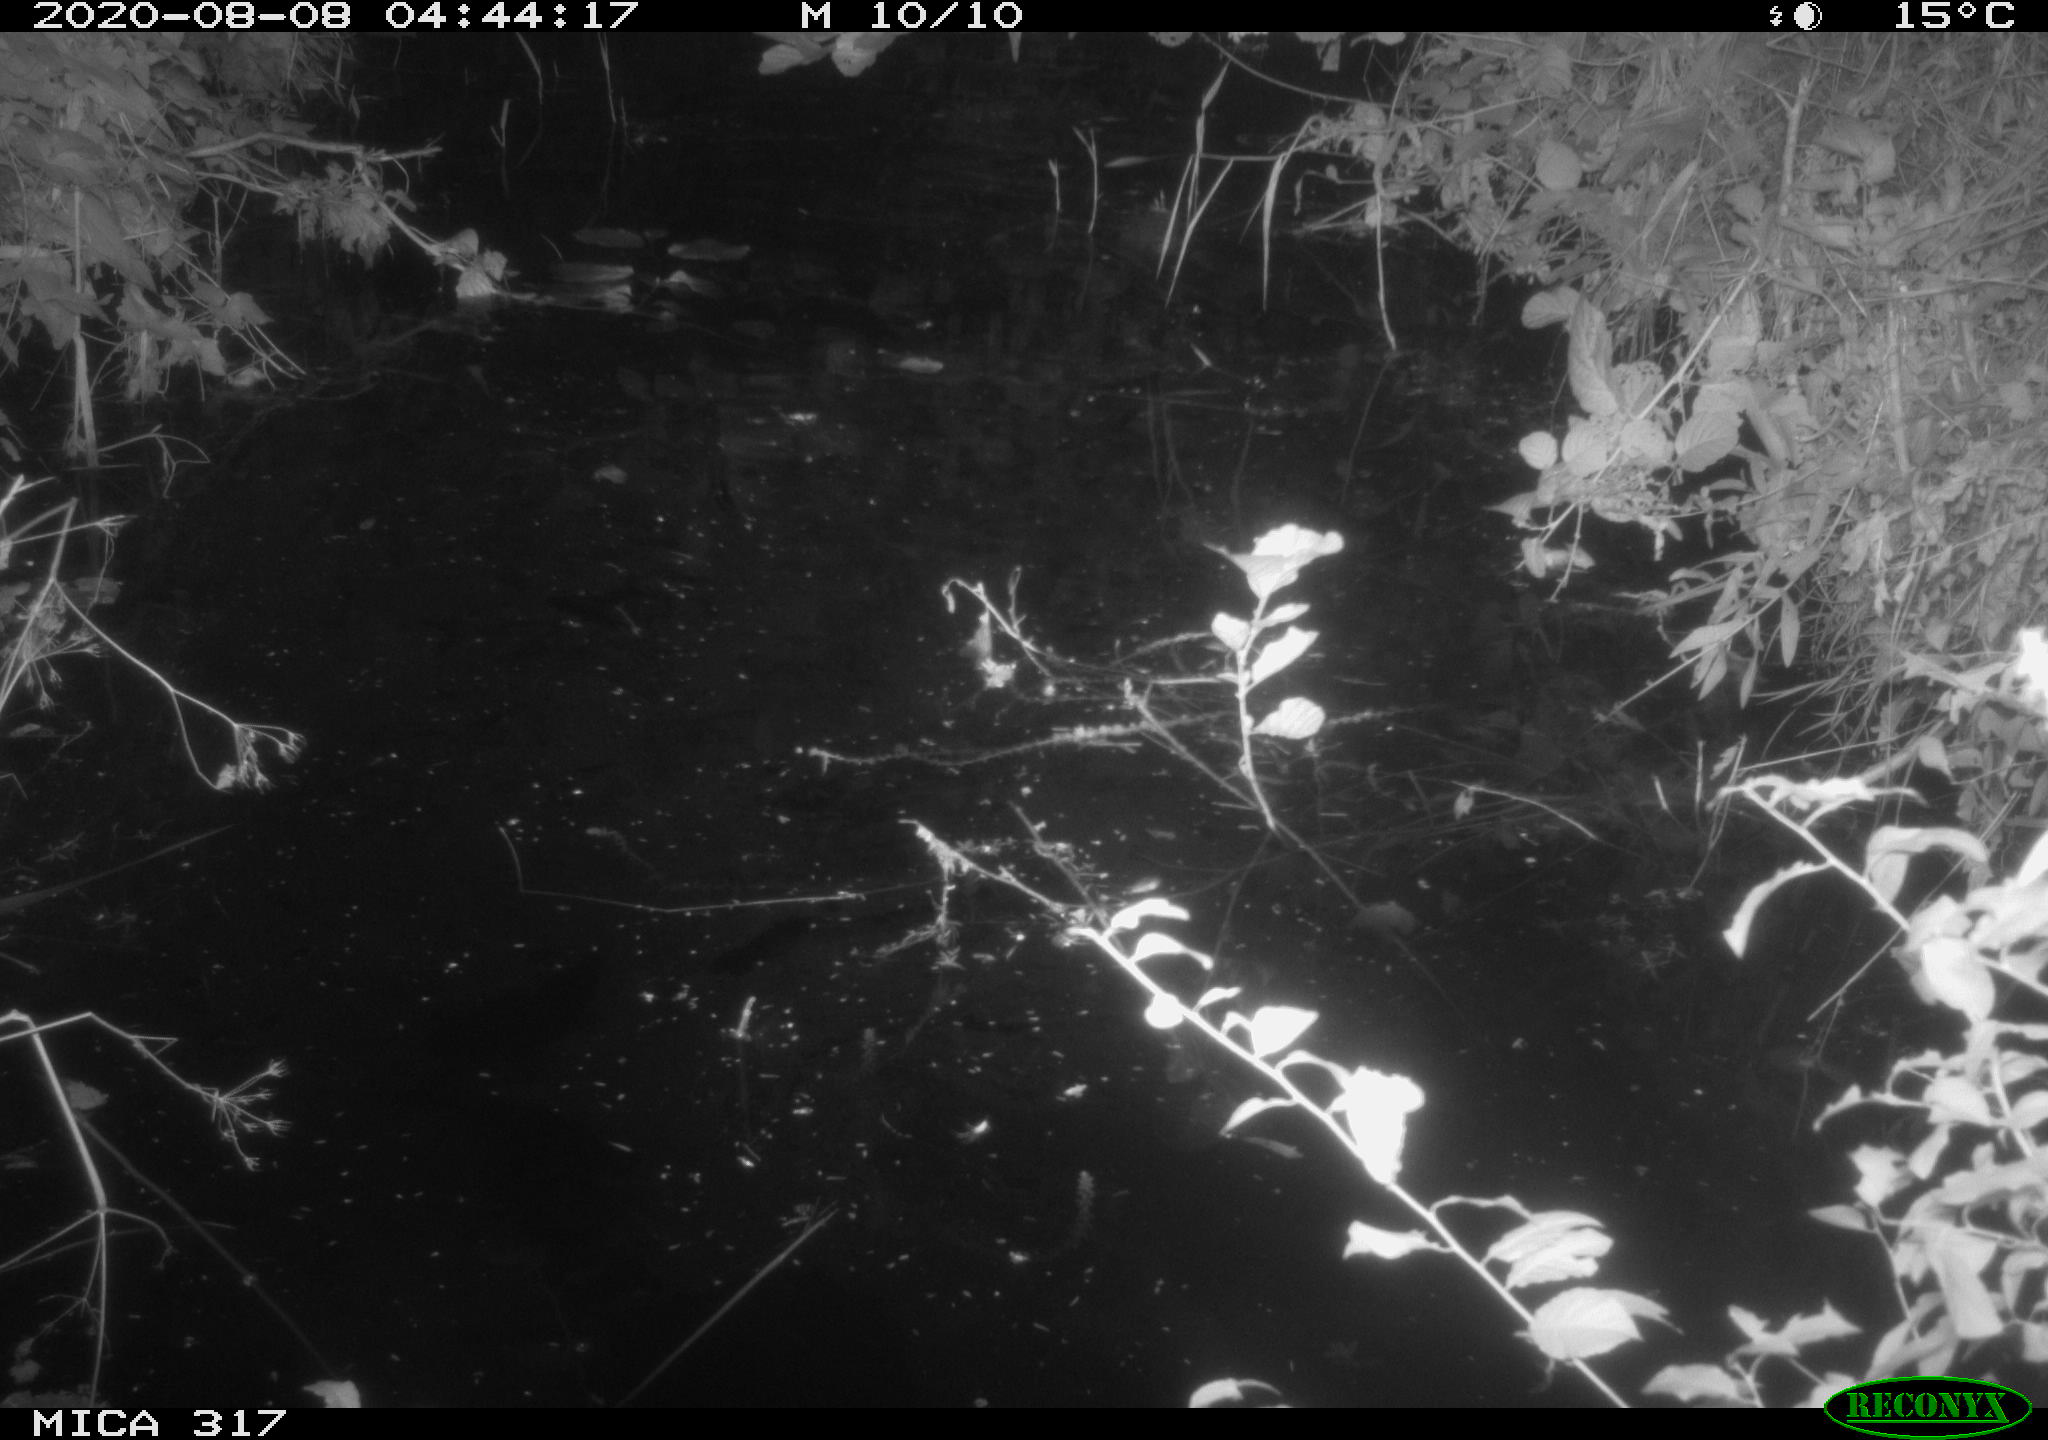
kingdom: Animalia
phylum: Chordata
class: Aves
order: Anseriformes
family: Anatidae
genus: Anas
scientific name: Anas platyrhynchos
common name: Mallard
